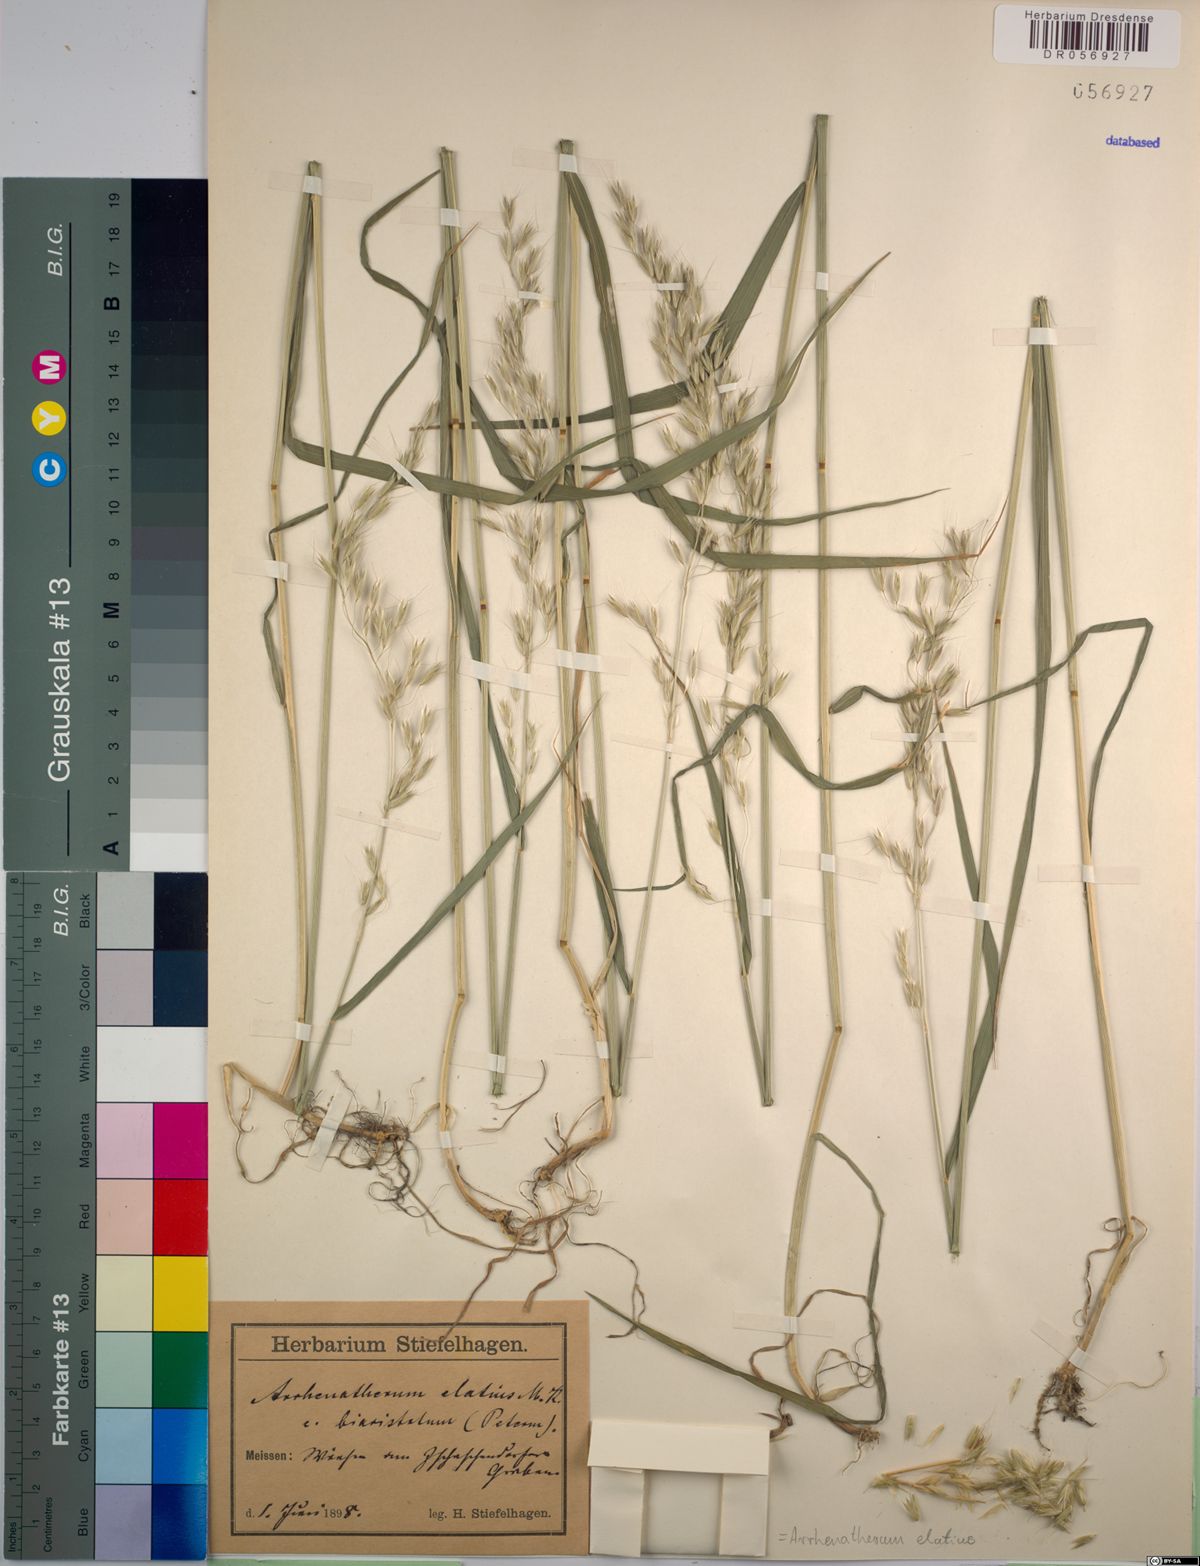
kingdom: Plantae
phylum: Tracheophyta
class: Liliopsida
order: Poales
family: Poaceae
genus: Arrhenatherum
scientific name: Arrhenatherum elatius
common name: Tall oatgrass
